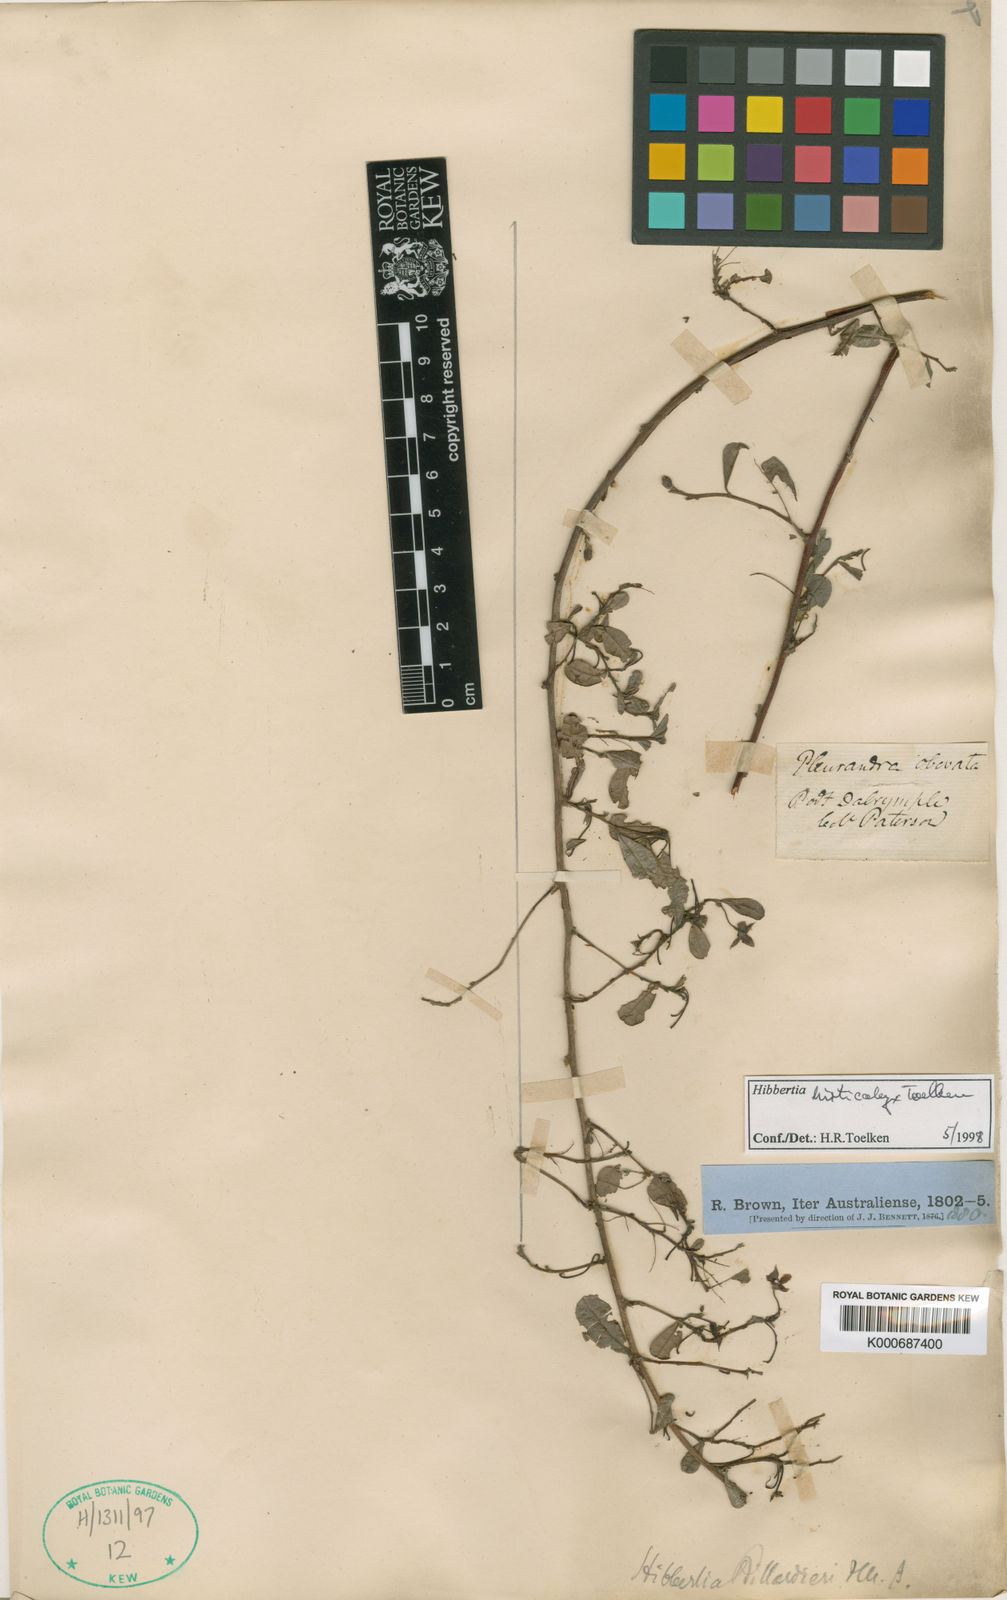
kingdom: Plantae
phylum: Tracheophyta
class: Magnoliopsida
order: Dilleniales
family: Dilleniaceae
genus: Hibbertia
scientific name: Hibbertia ovata
